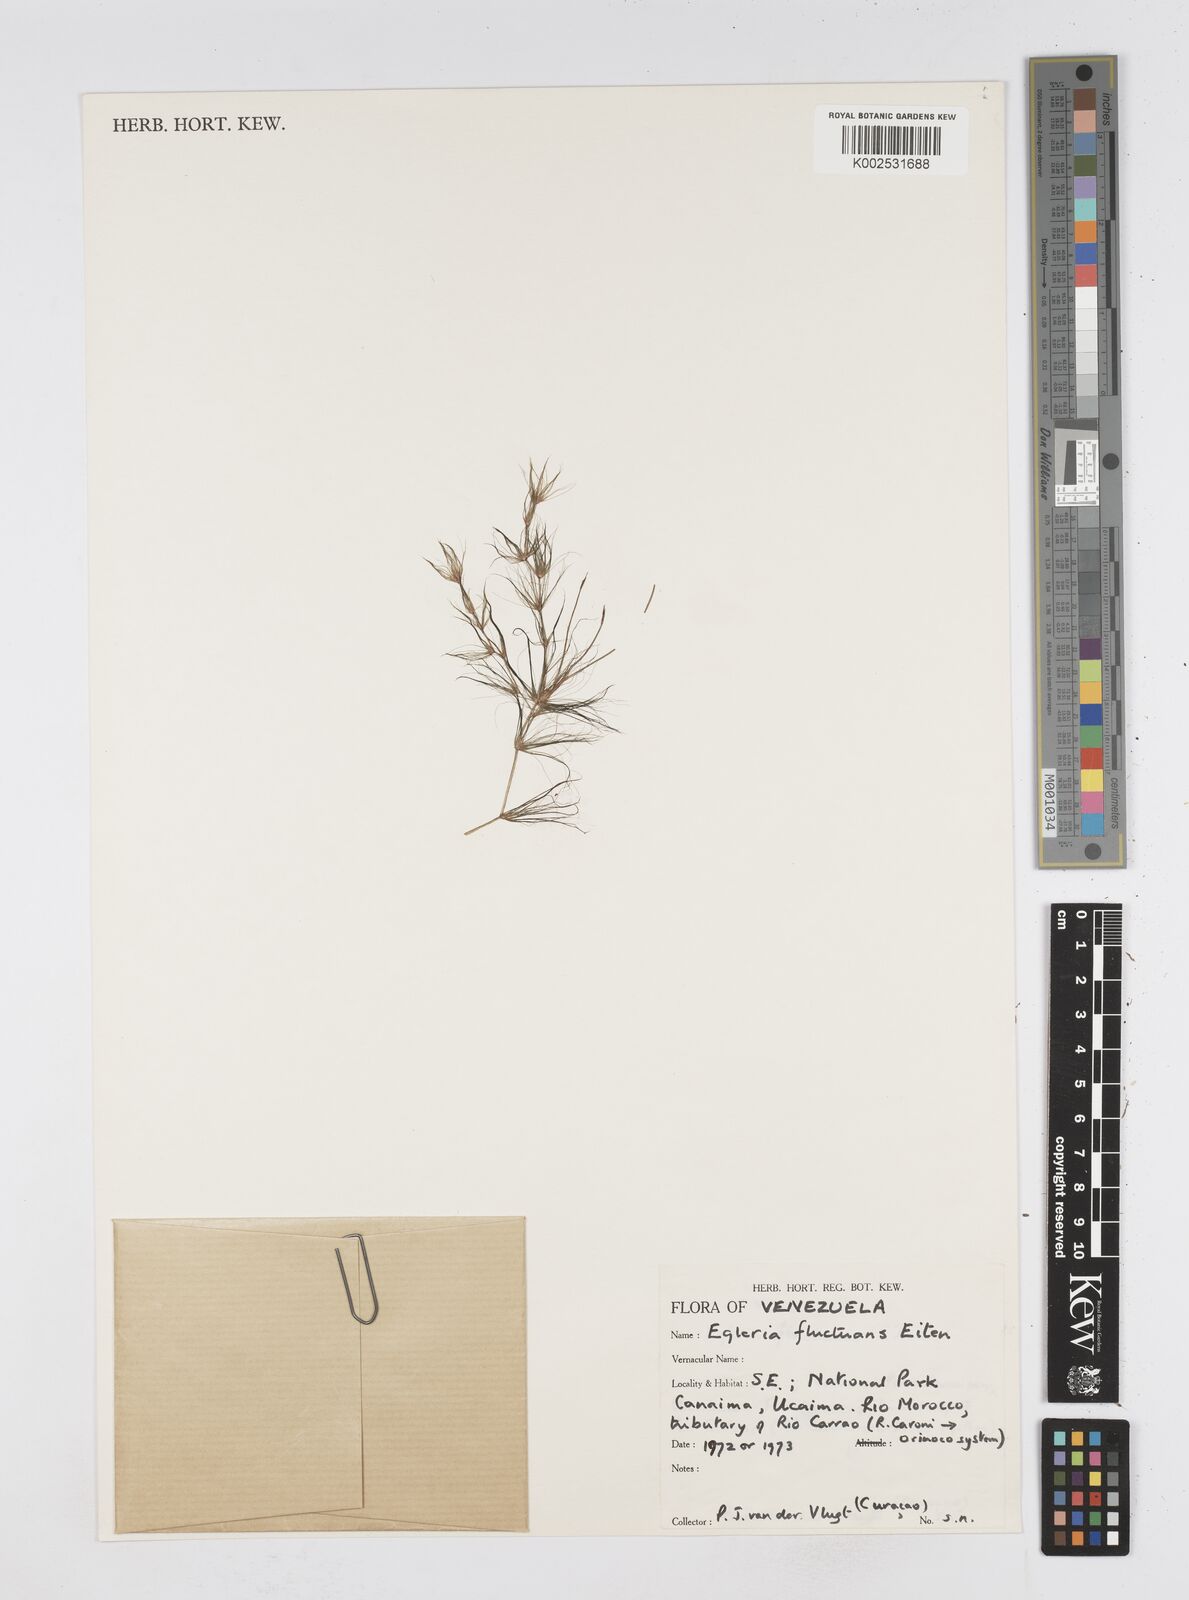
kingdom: Plantae
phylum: Tracheophyta
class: Liliopsida
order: Poales
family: Cyperaceae
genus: Eleocharis
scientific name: Eleocharis fluctuans
